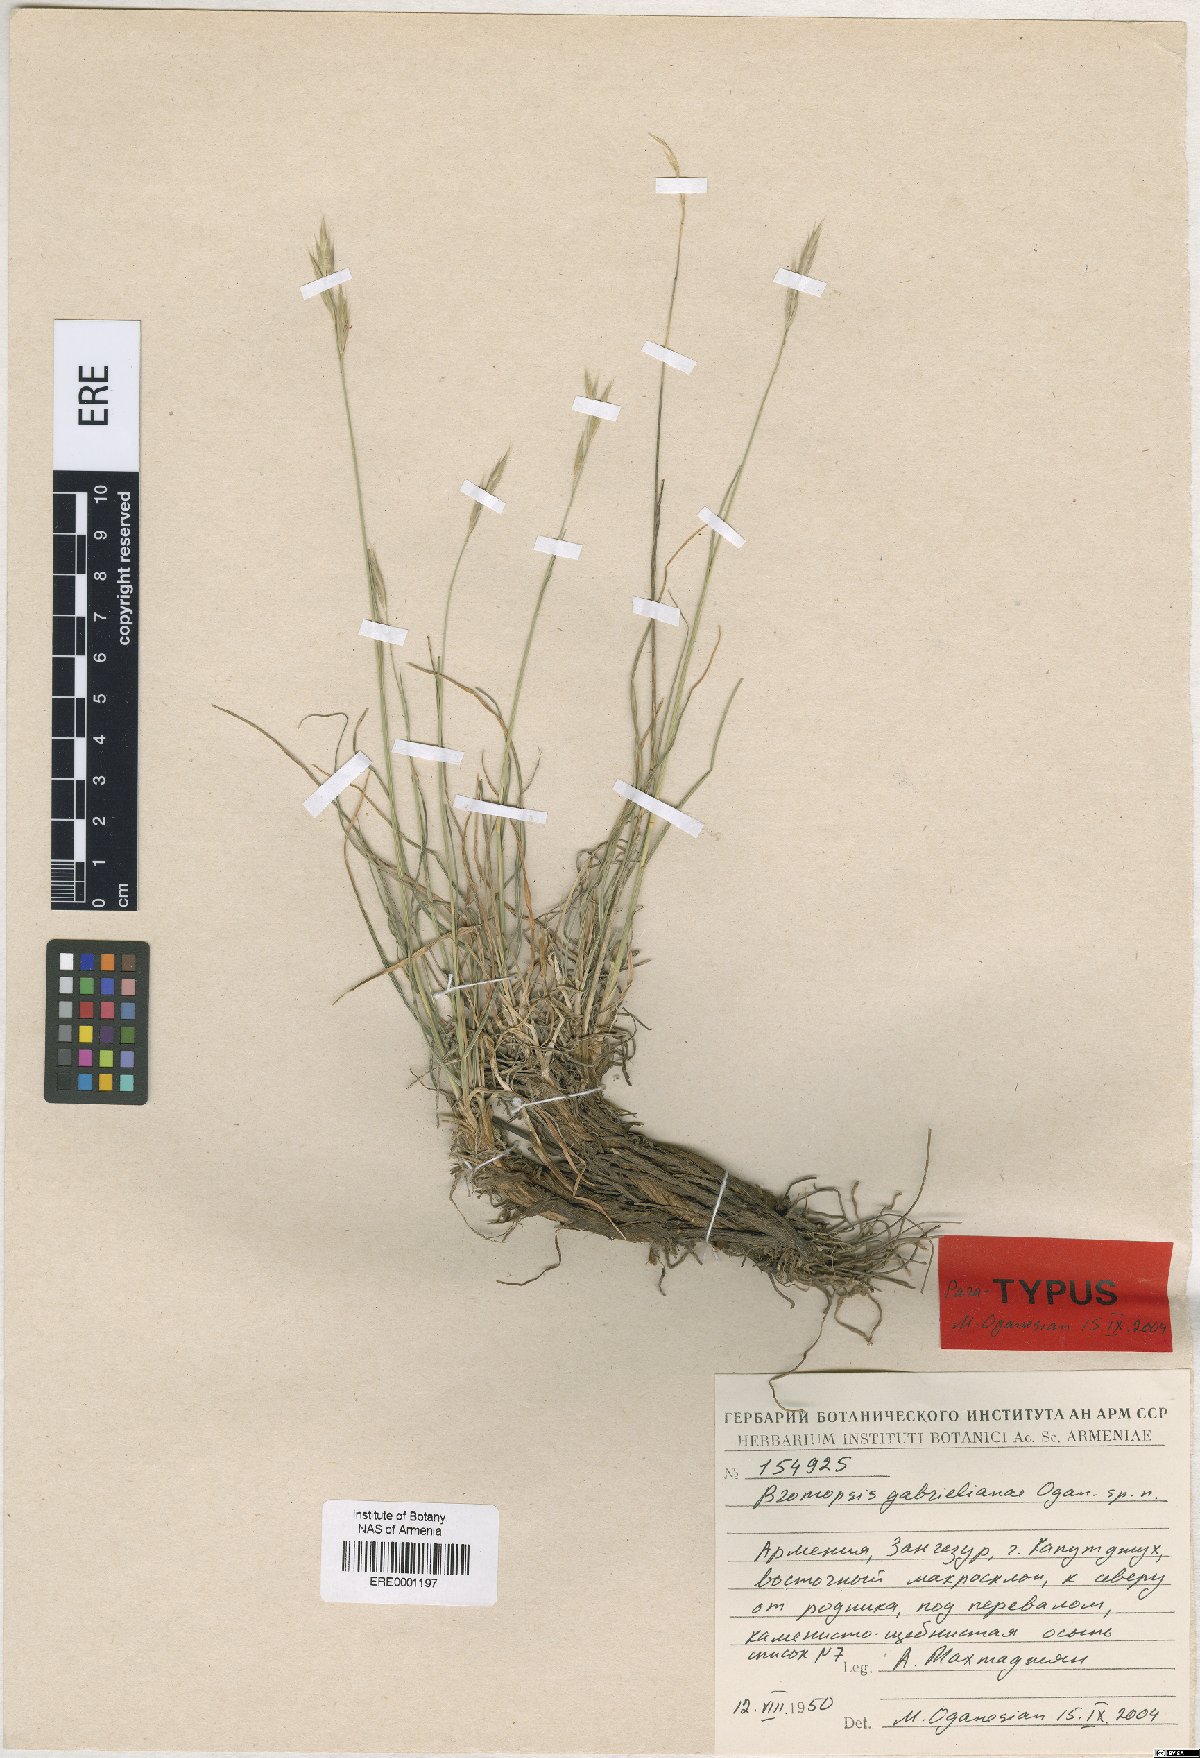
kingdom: Plantae
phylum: Tracheophyta
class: Liliopsida
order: Poales
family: Poaceae
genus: Bromus
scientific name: Bromus tomentosus
